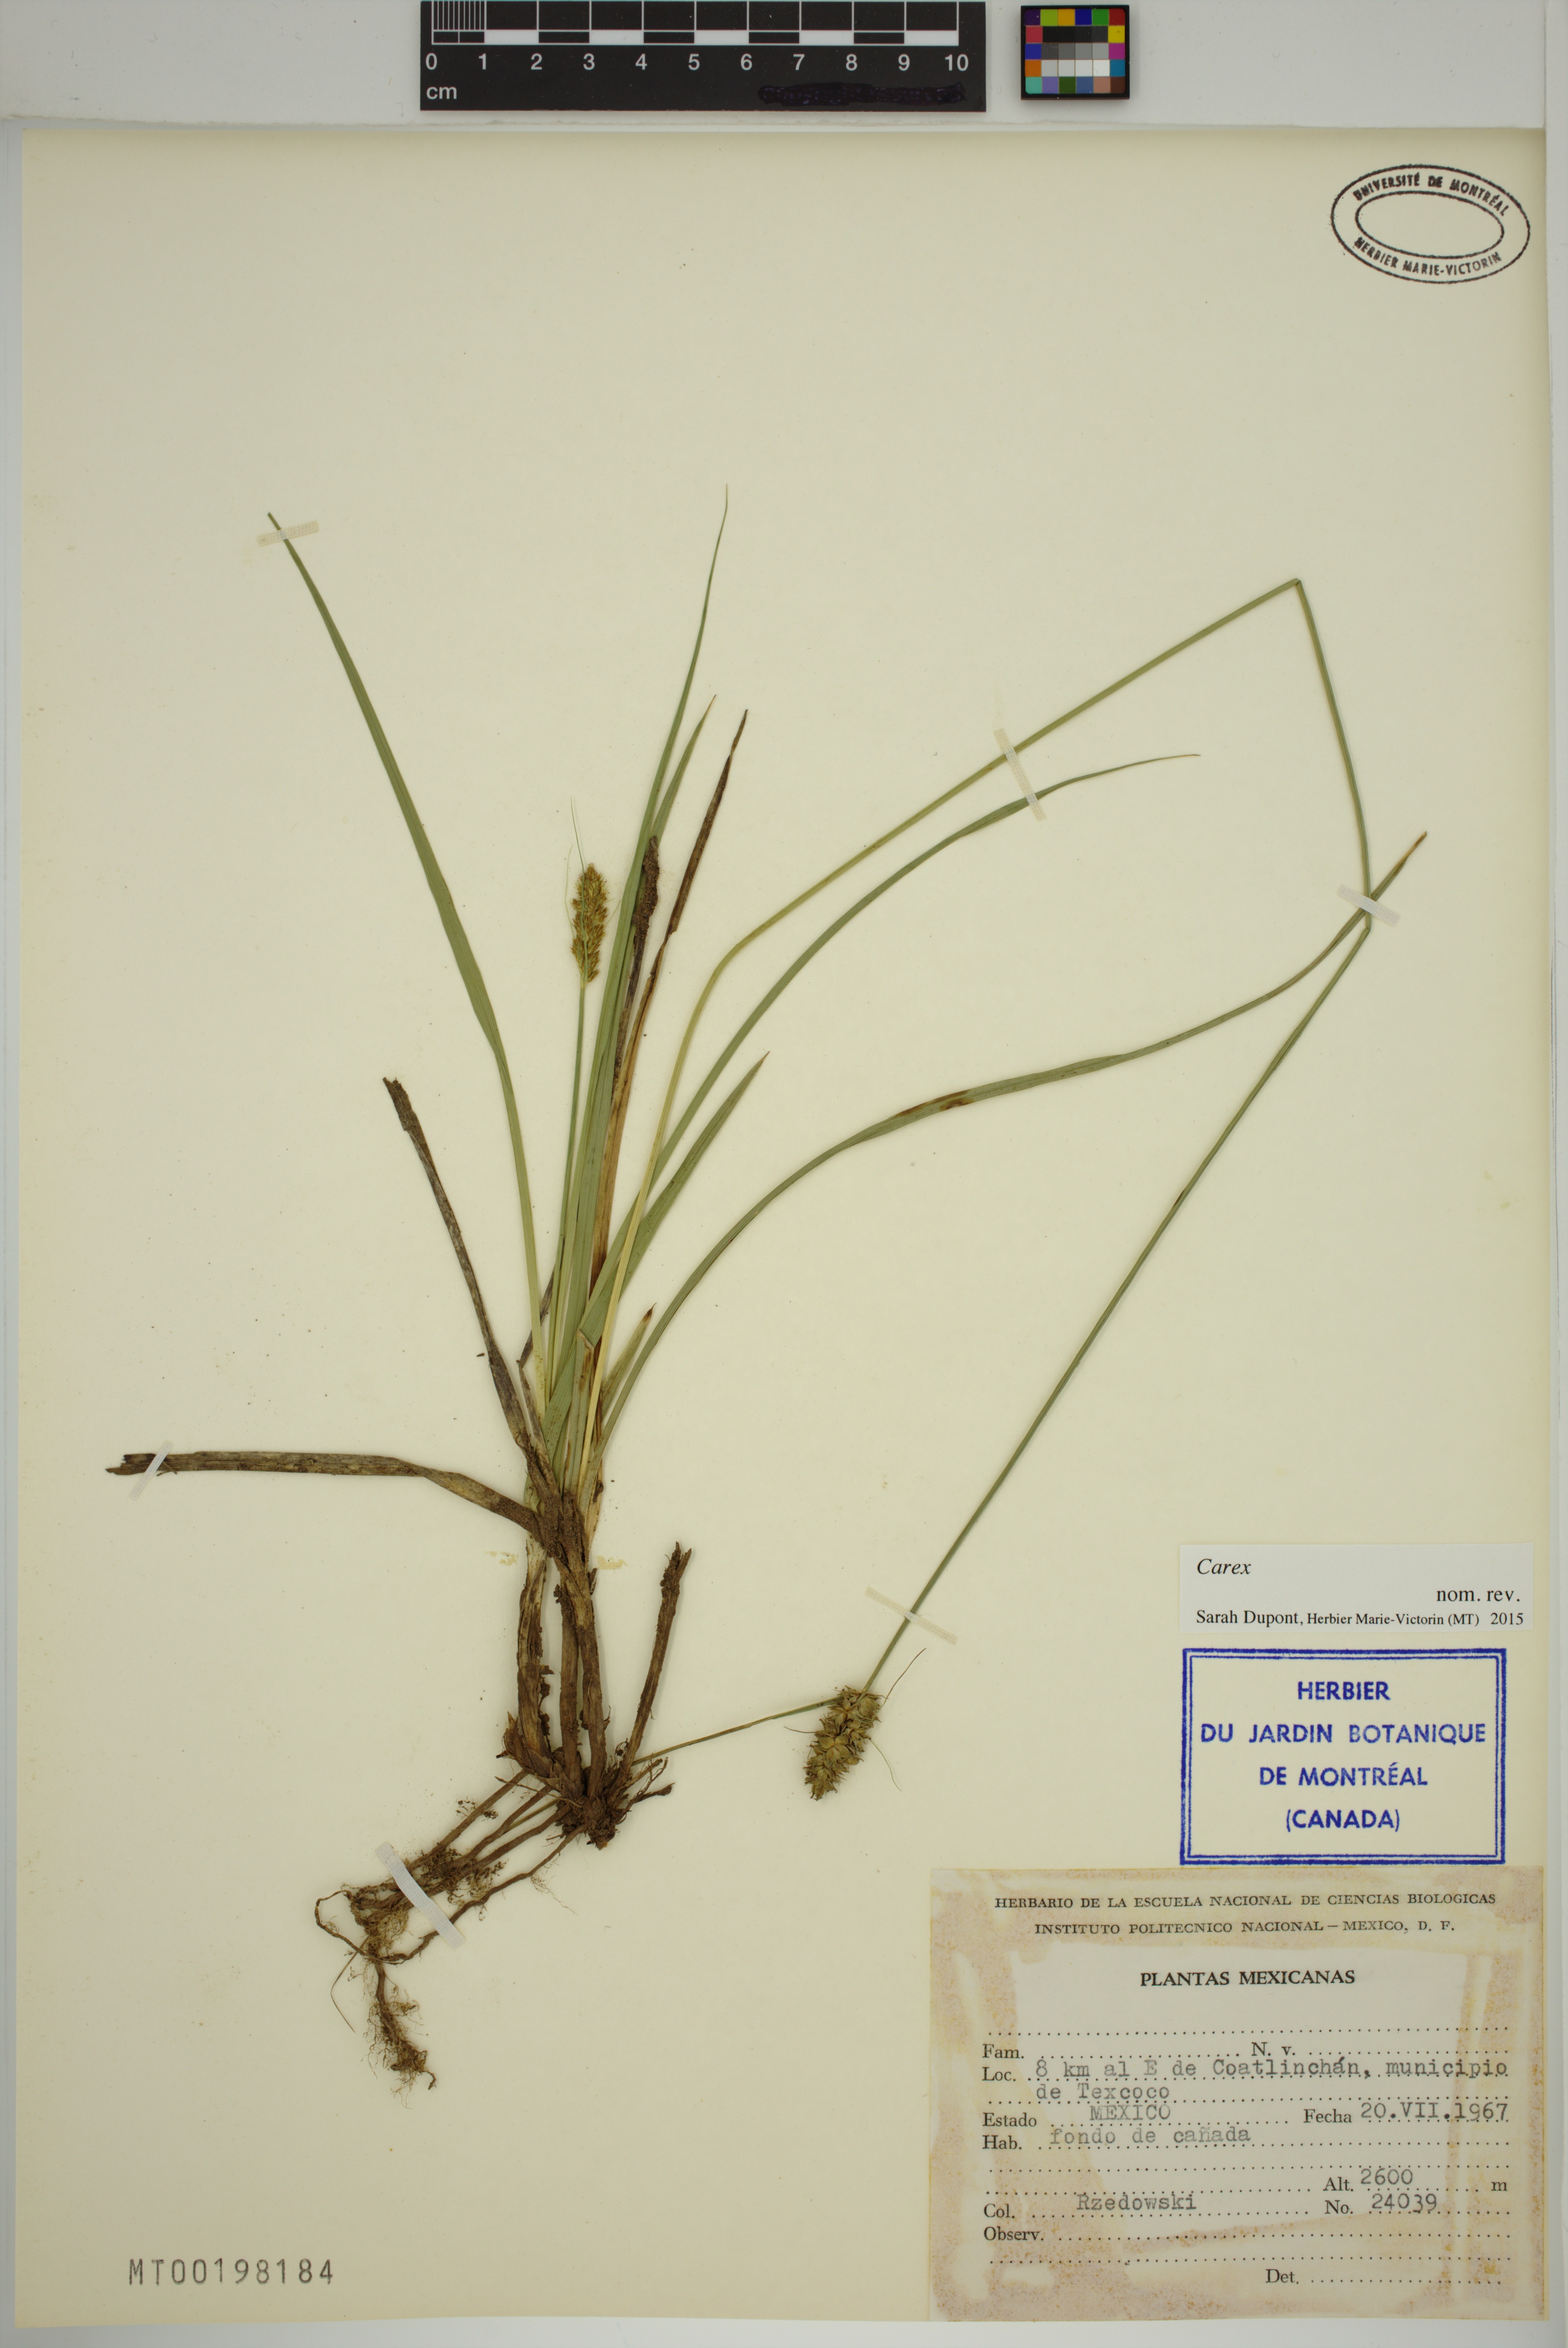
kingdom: Plantae
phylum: Tracheophyta
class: Liliopsida
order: Poales
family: Cyperaceae
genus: Carex
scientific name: Carex
